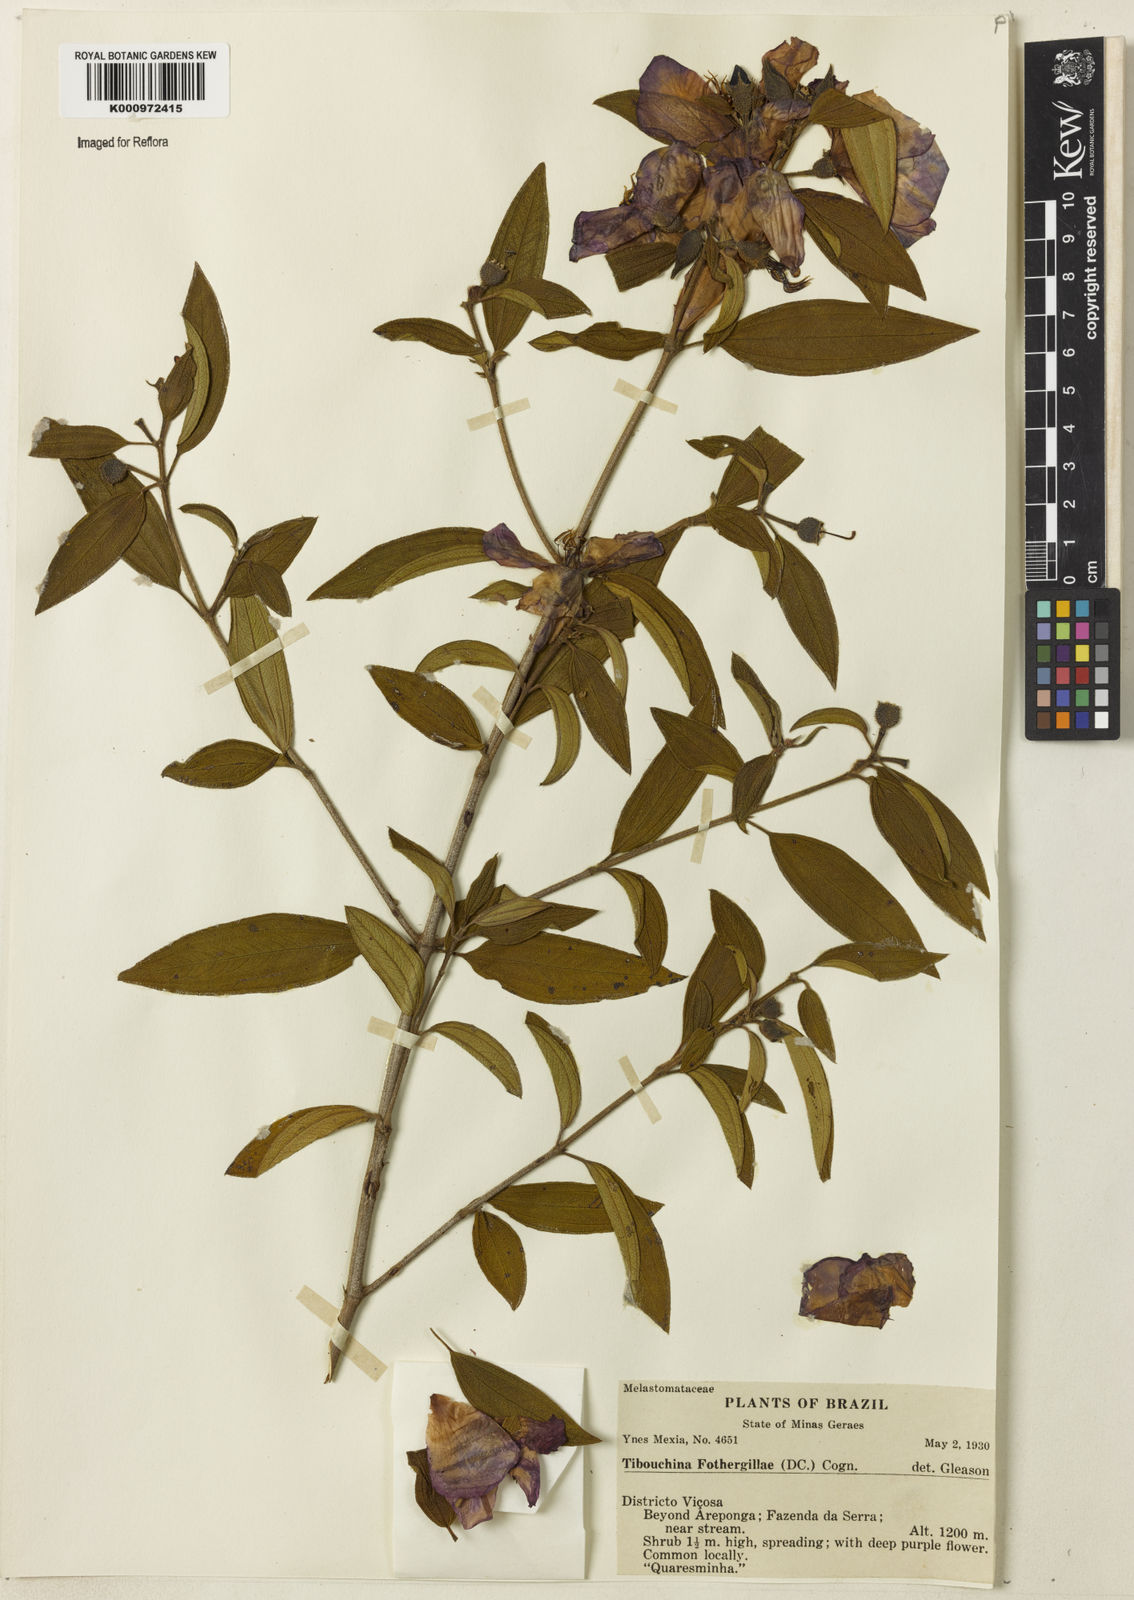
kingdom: Plantae
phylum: Tracheophyta
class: Magnoliopsida
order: Myrtales
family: Melastomataceae
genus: Pleroma
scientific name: Pleroma fothergillae
